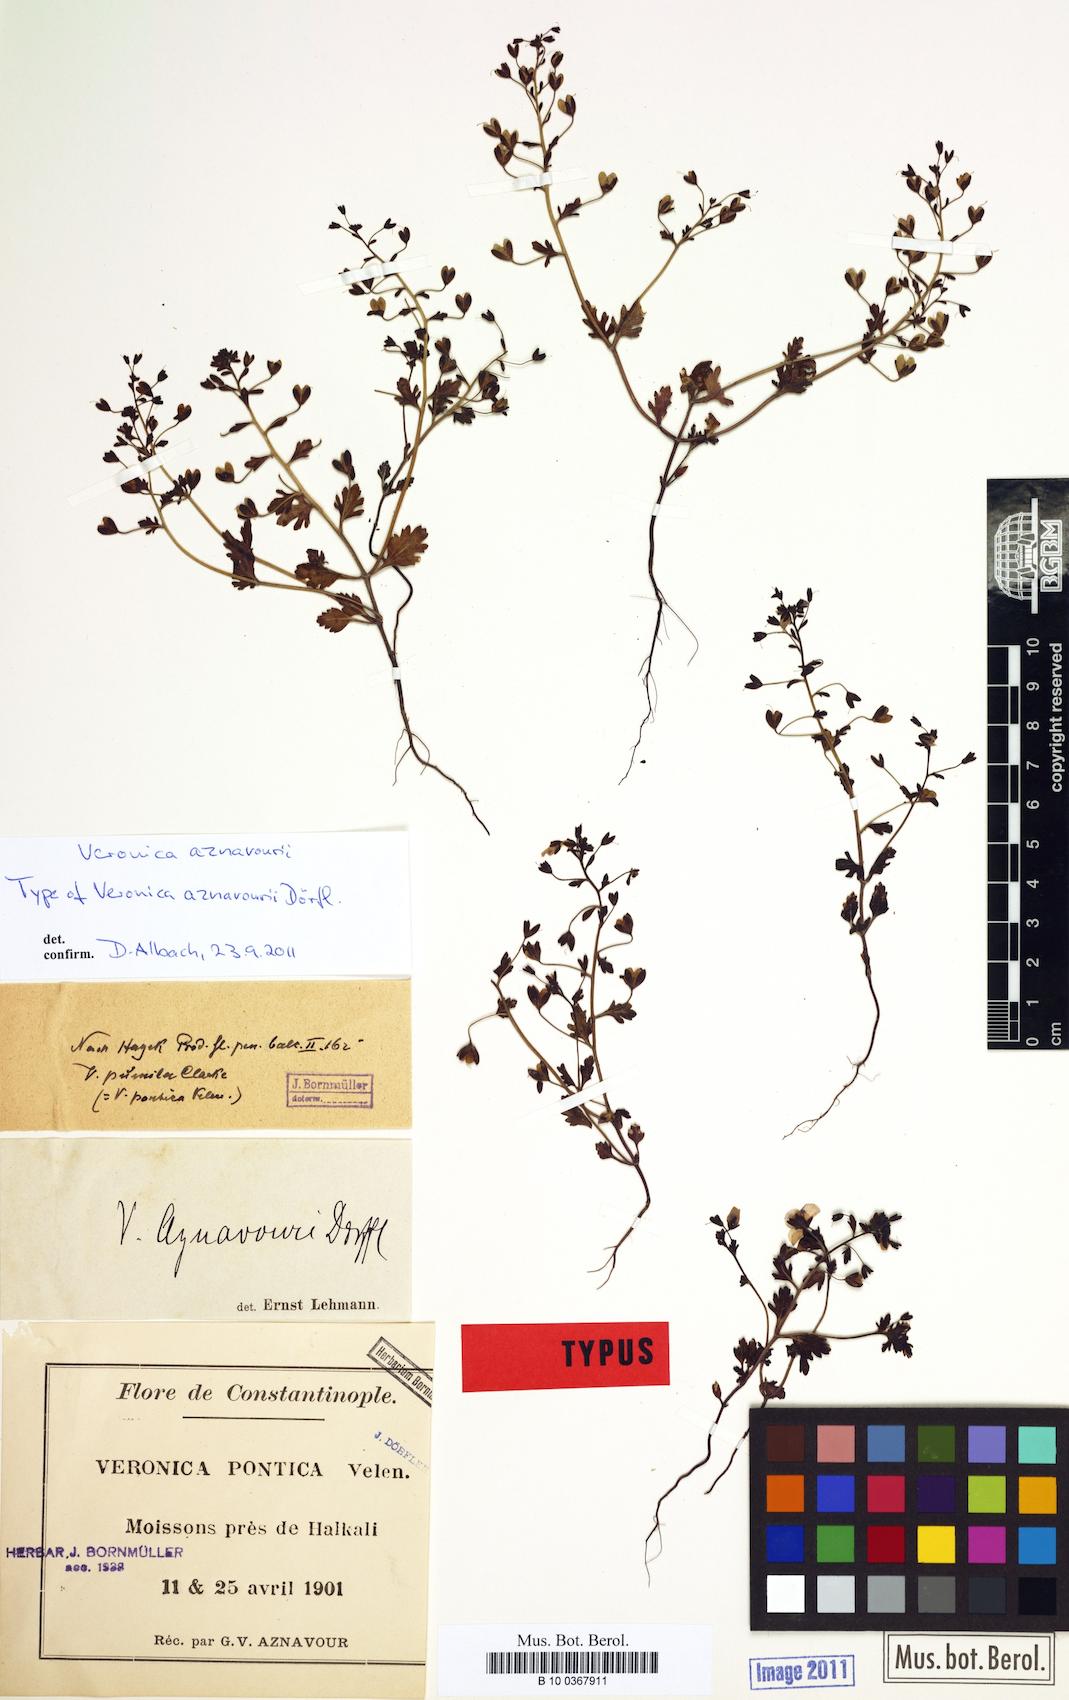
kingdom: Plantae
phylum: Tracheophyta
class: Magnoliopsida
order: Lamiales
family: Plantaginaceae
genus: Veronica
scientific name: Veronica aznavourii
